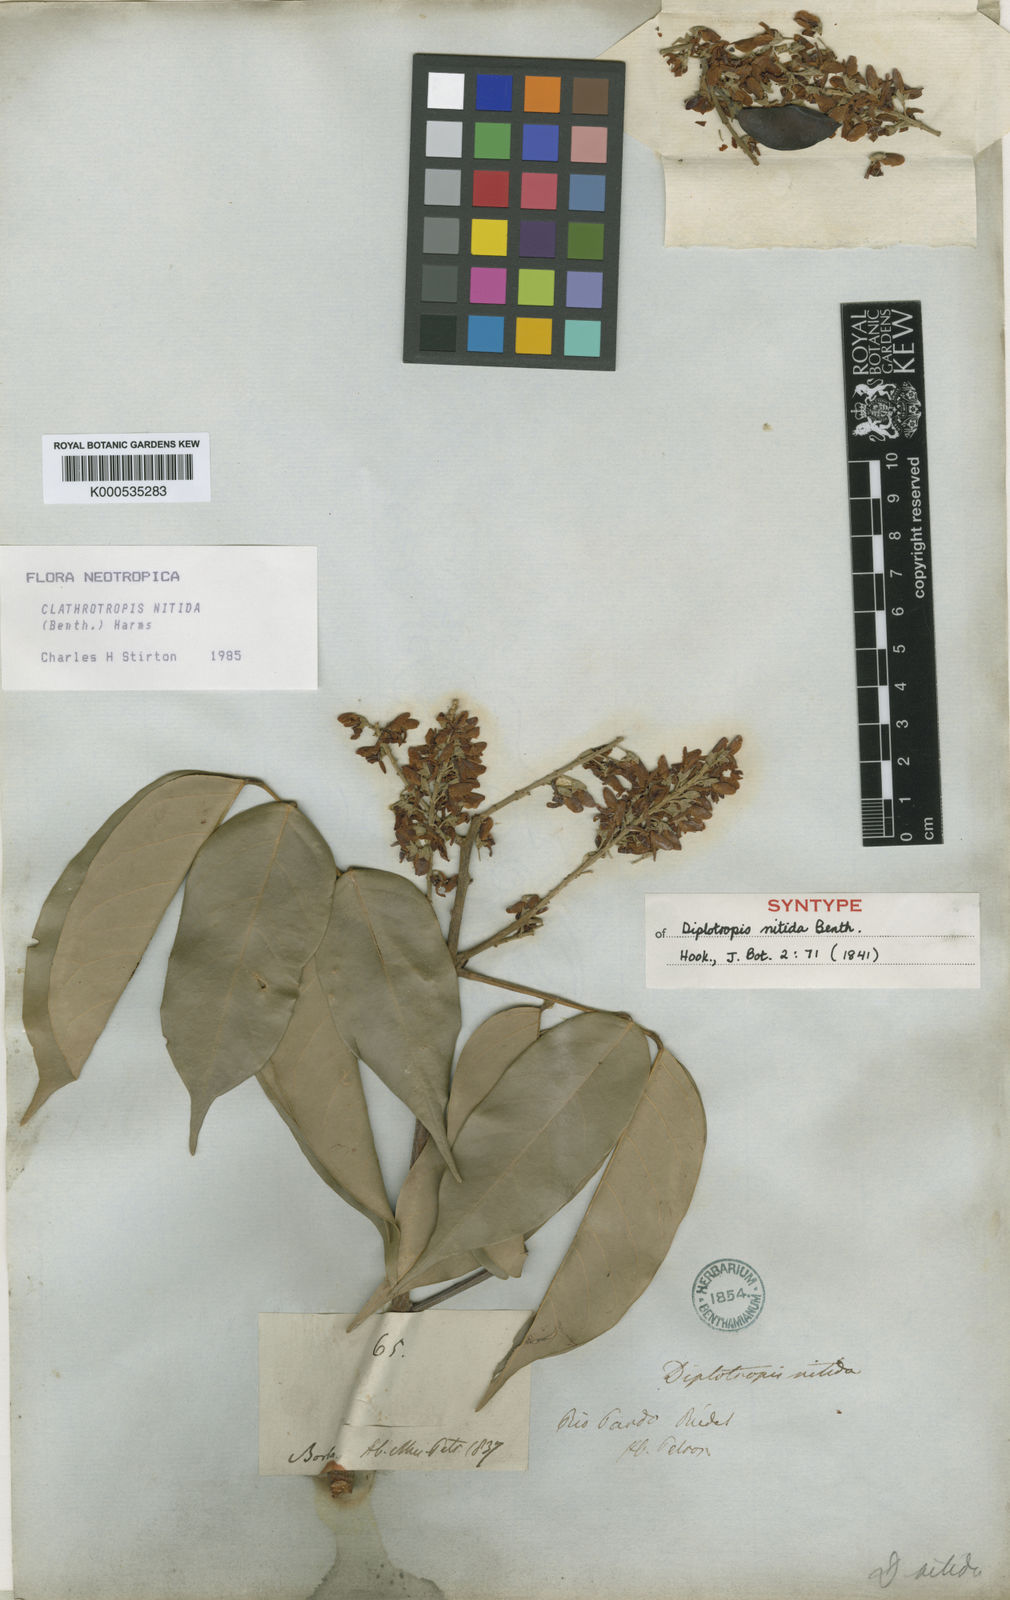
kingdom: Plantae
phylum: Tracheophyta
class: Magnoliopsida
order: Fabales
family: Fabaceae
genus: Clathrotropis
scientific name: Clathrotropis nitida
